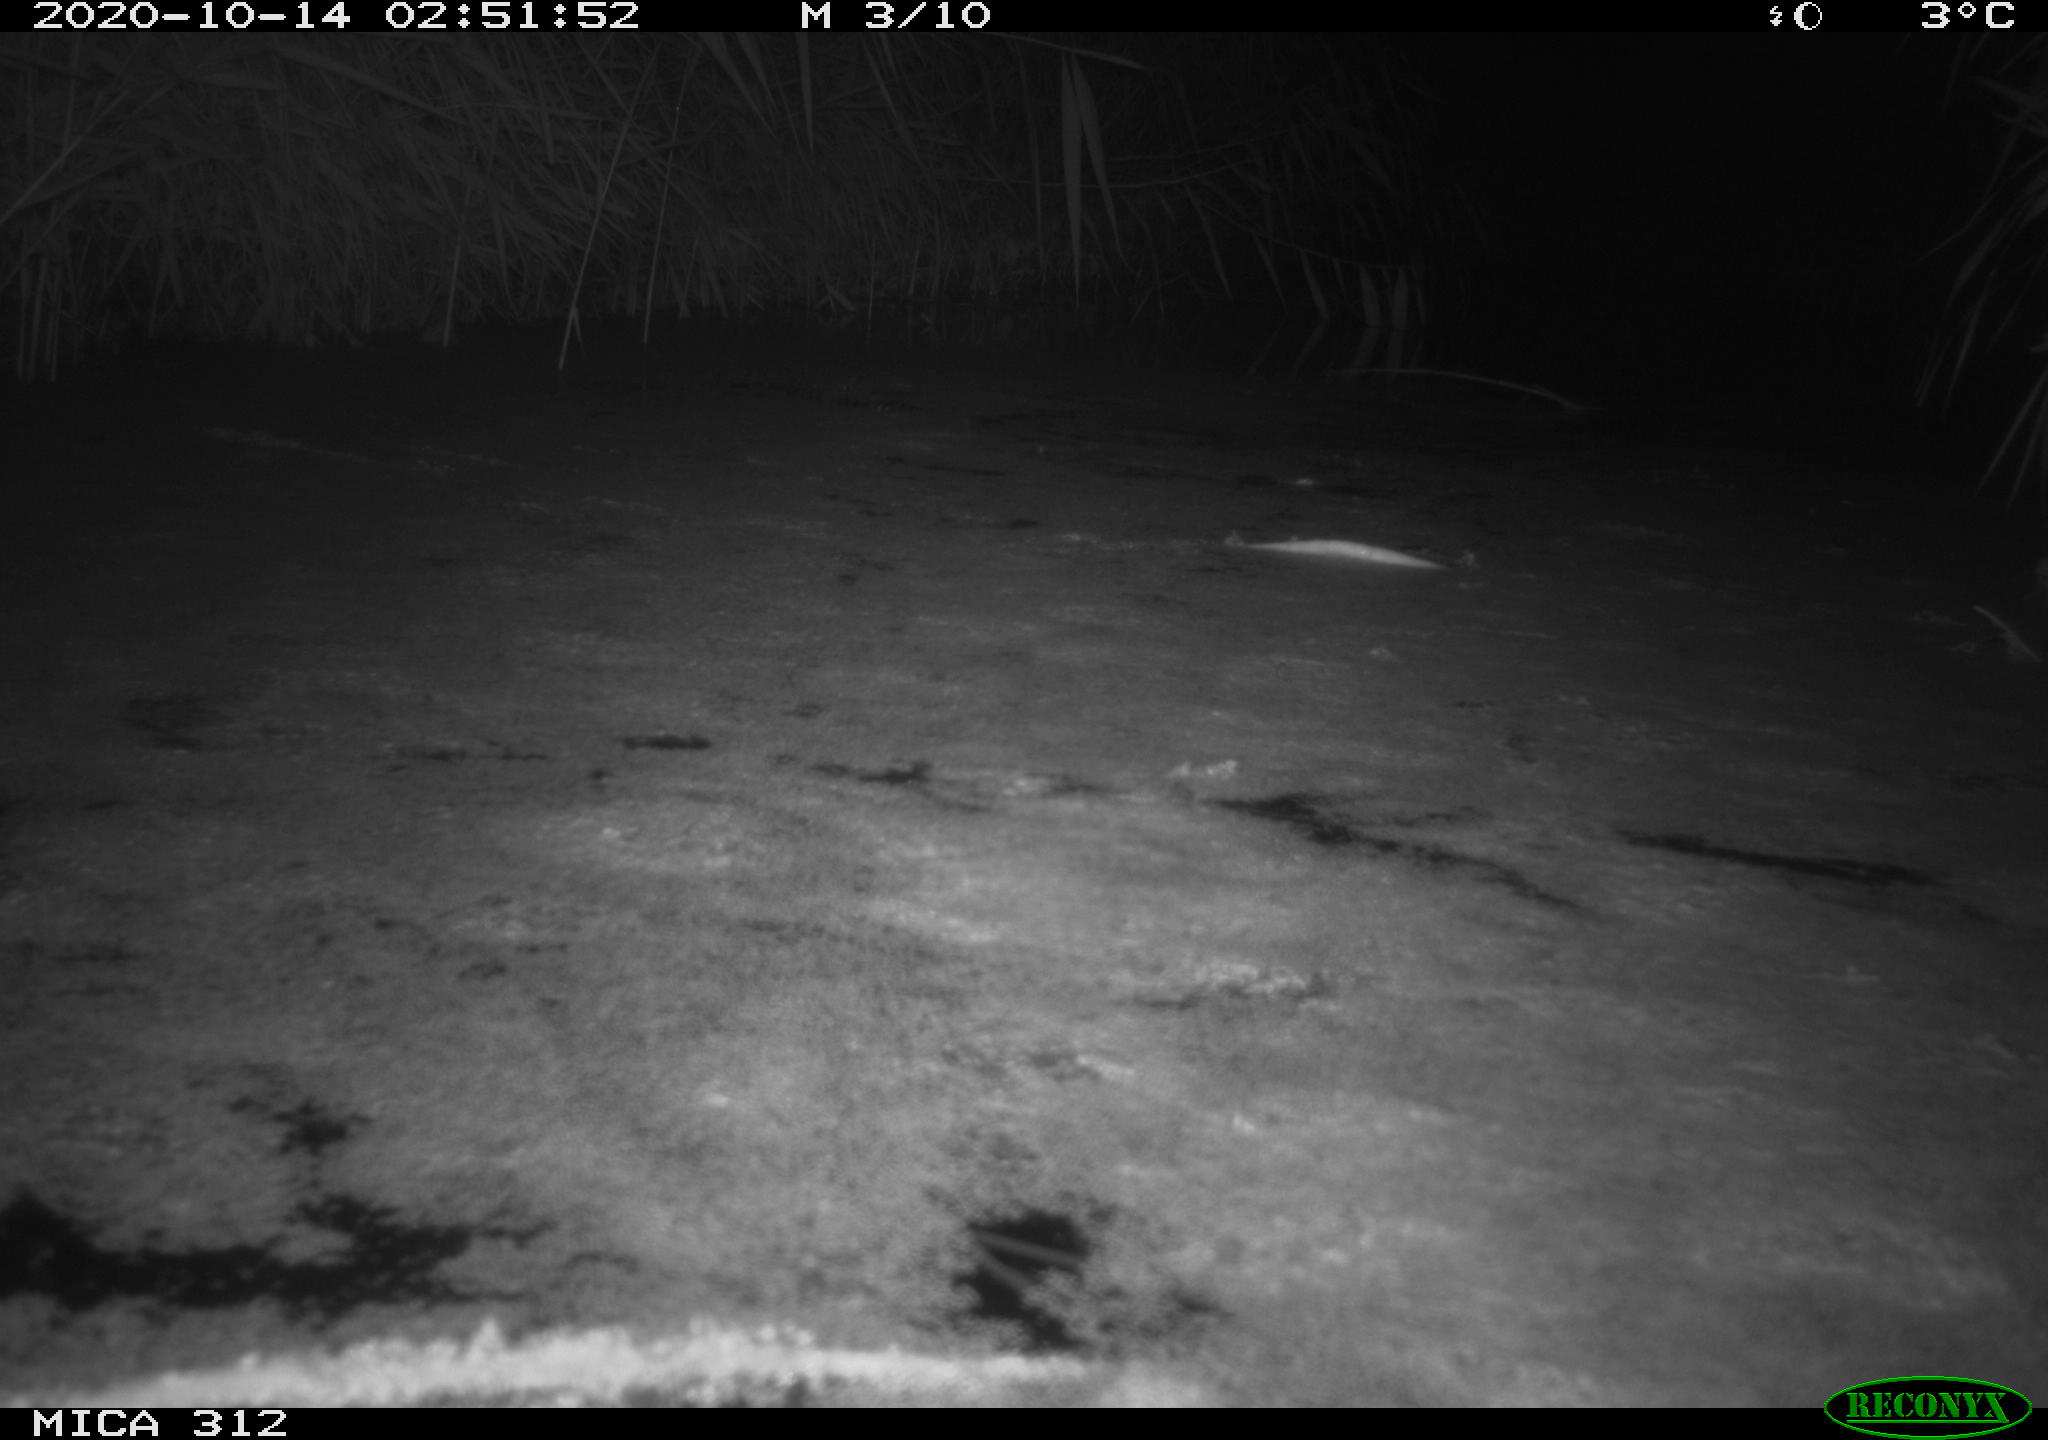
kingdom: Animalia
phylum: Chordata
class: Mammalia
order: Rodentia
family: Muridae
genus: Rattus
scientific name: Rattus norvegicus
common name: Brown rat
